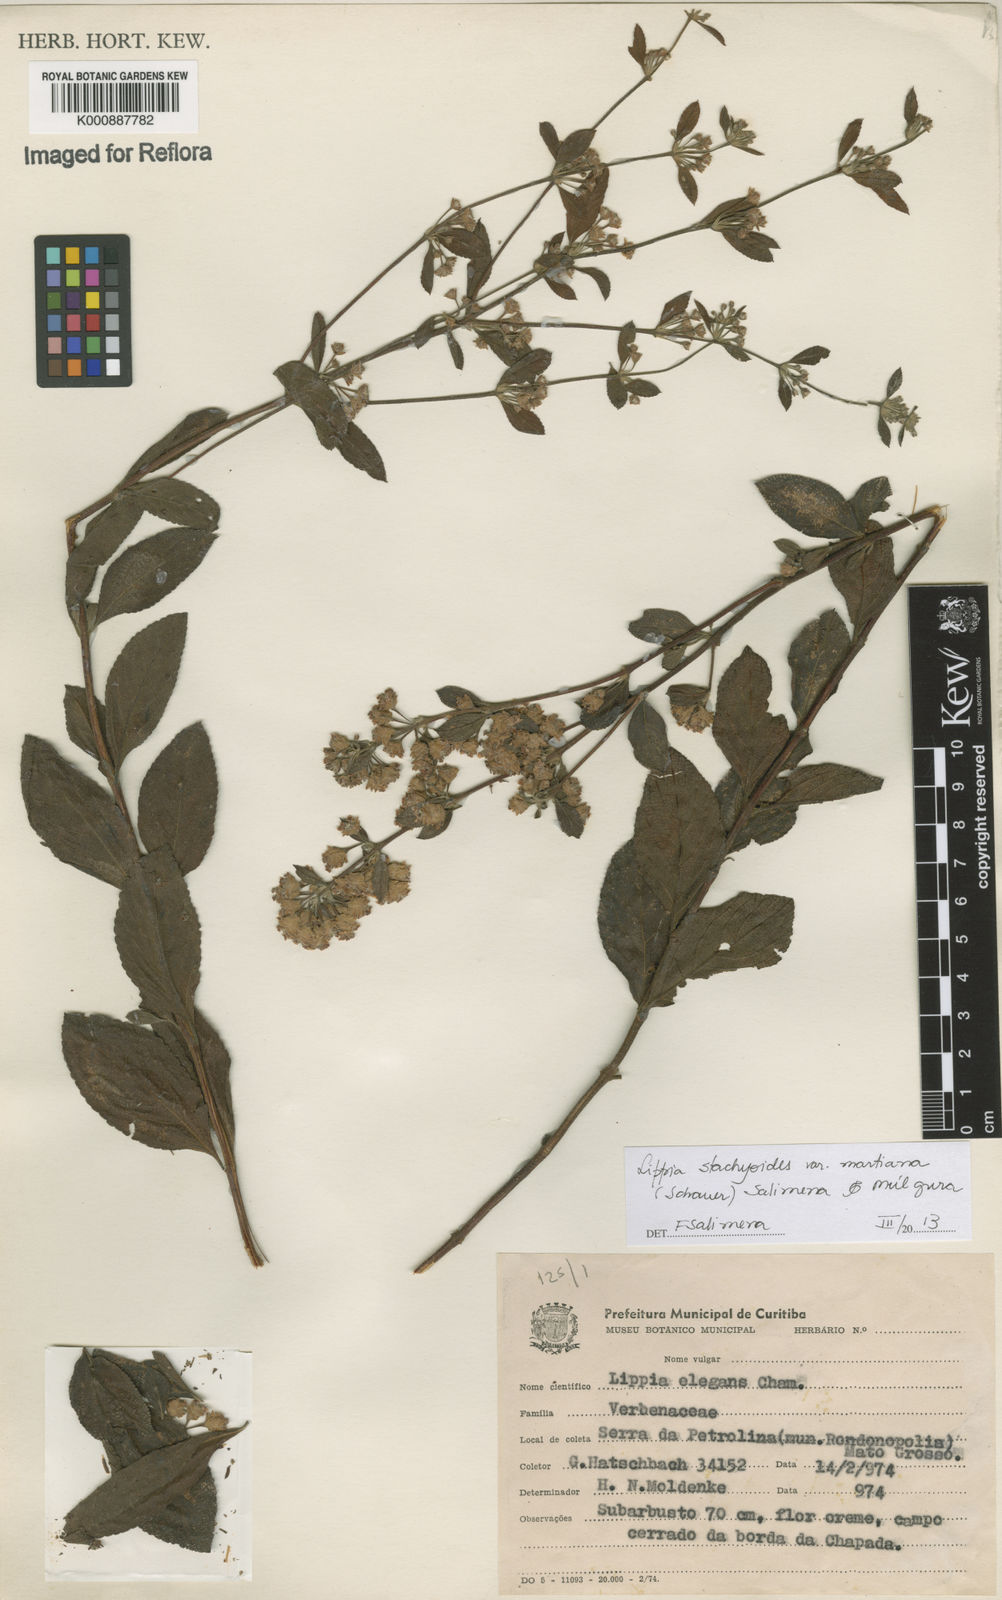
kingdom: Plantae
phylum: Tracheophyta
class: Magnoliopsida
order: Lamiales
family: Verbenaceae
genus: Lippia
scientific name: Lippia stachyoides
